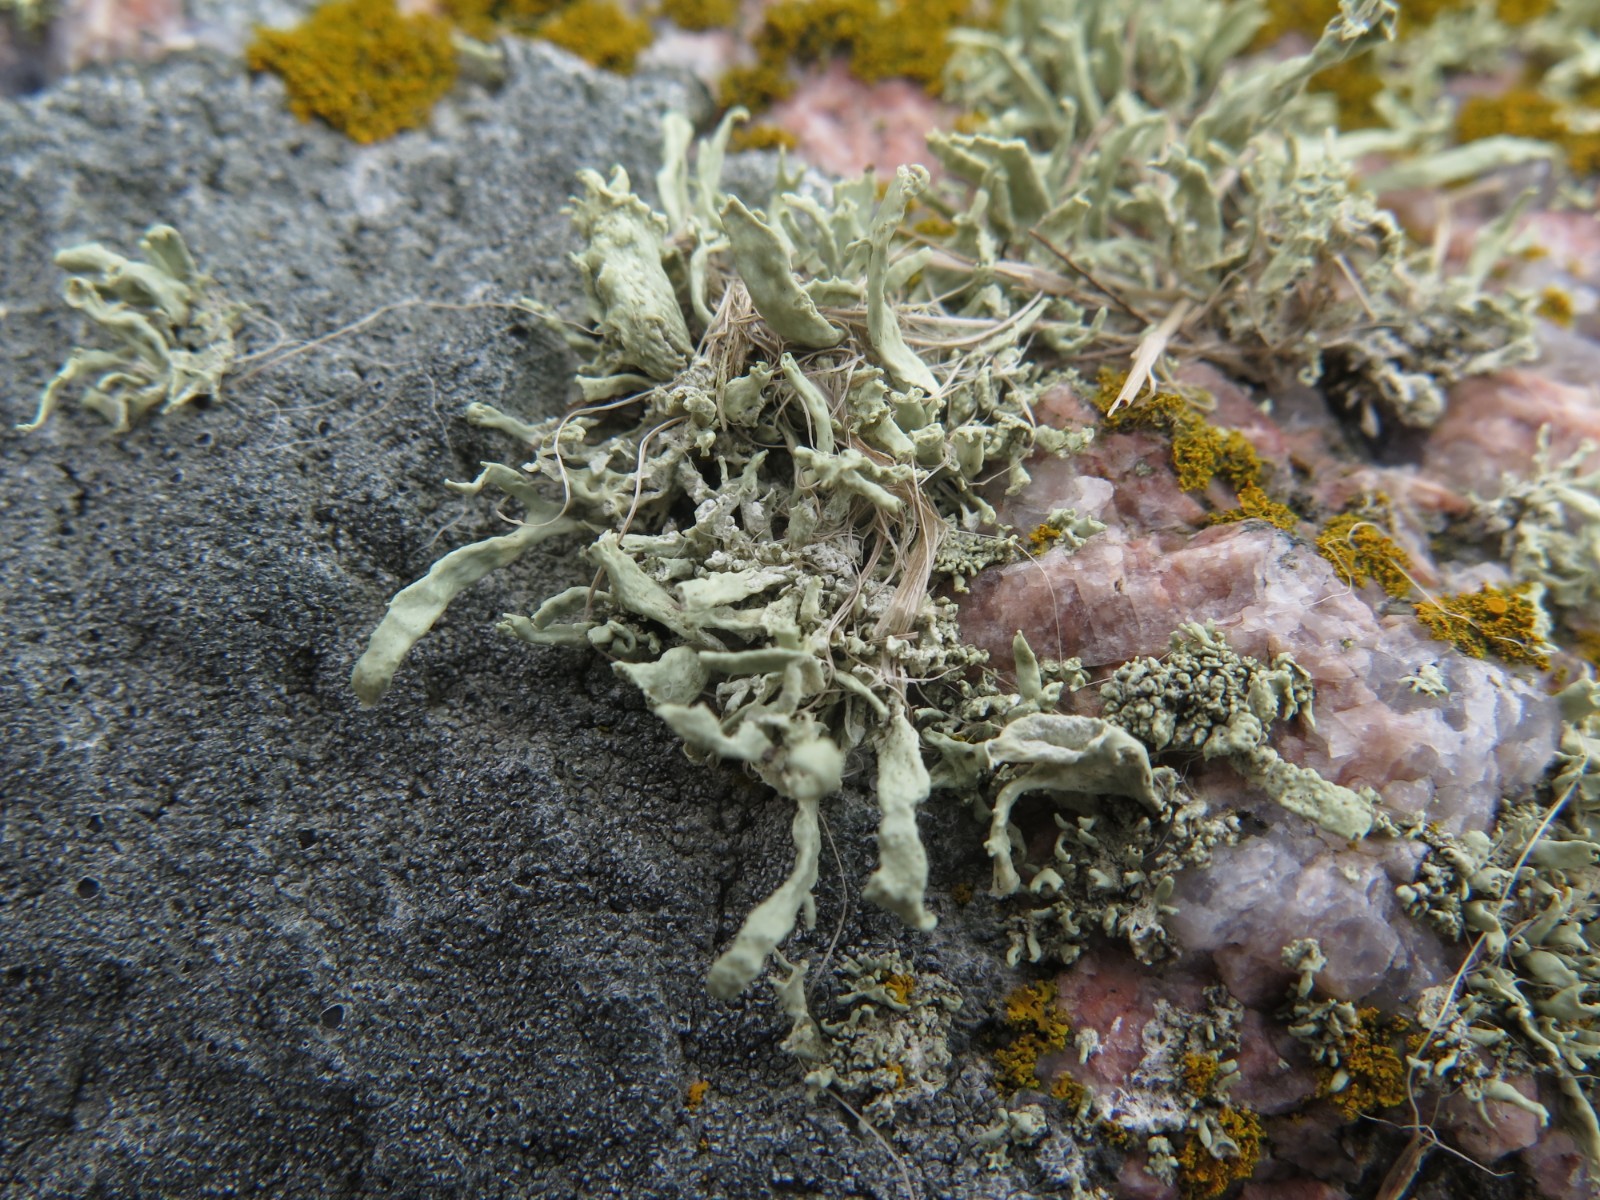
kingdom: Fungi
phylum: Ascomycota
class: Lecanoromycetes
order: Lecanorales
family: Ramalinaceae
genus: Ramalina
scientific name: Ramalina siliquosa
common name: klippe-grenlav
